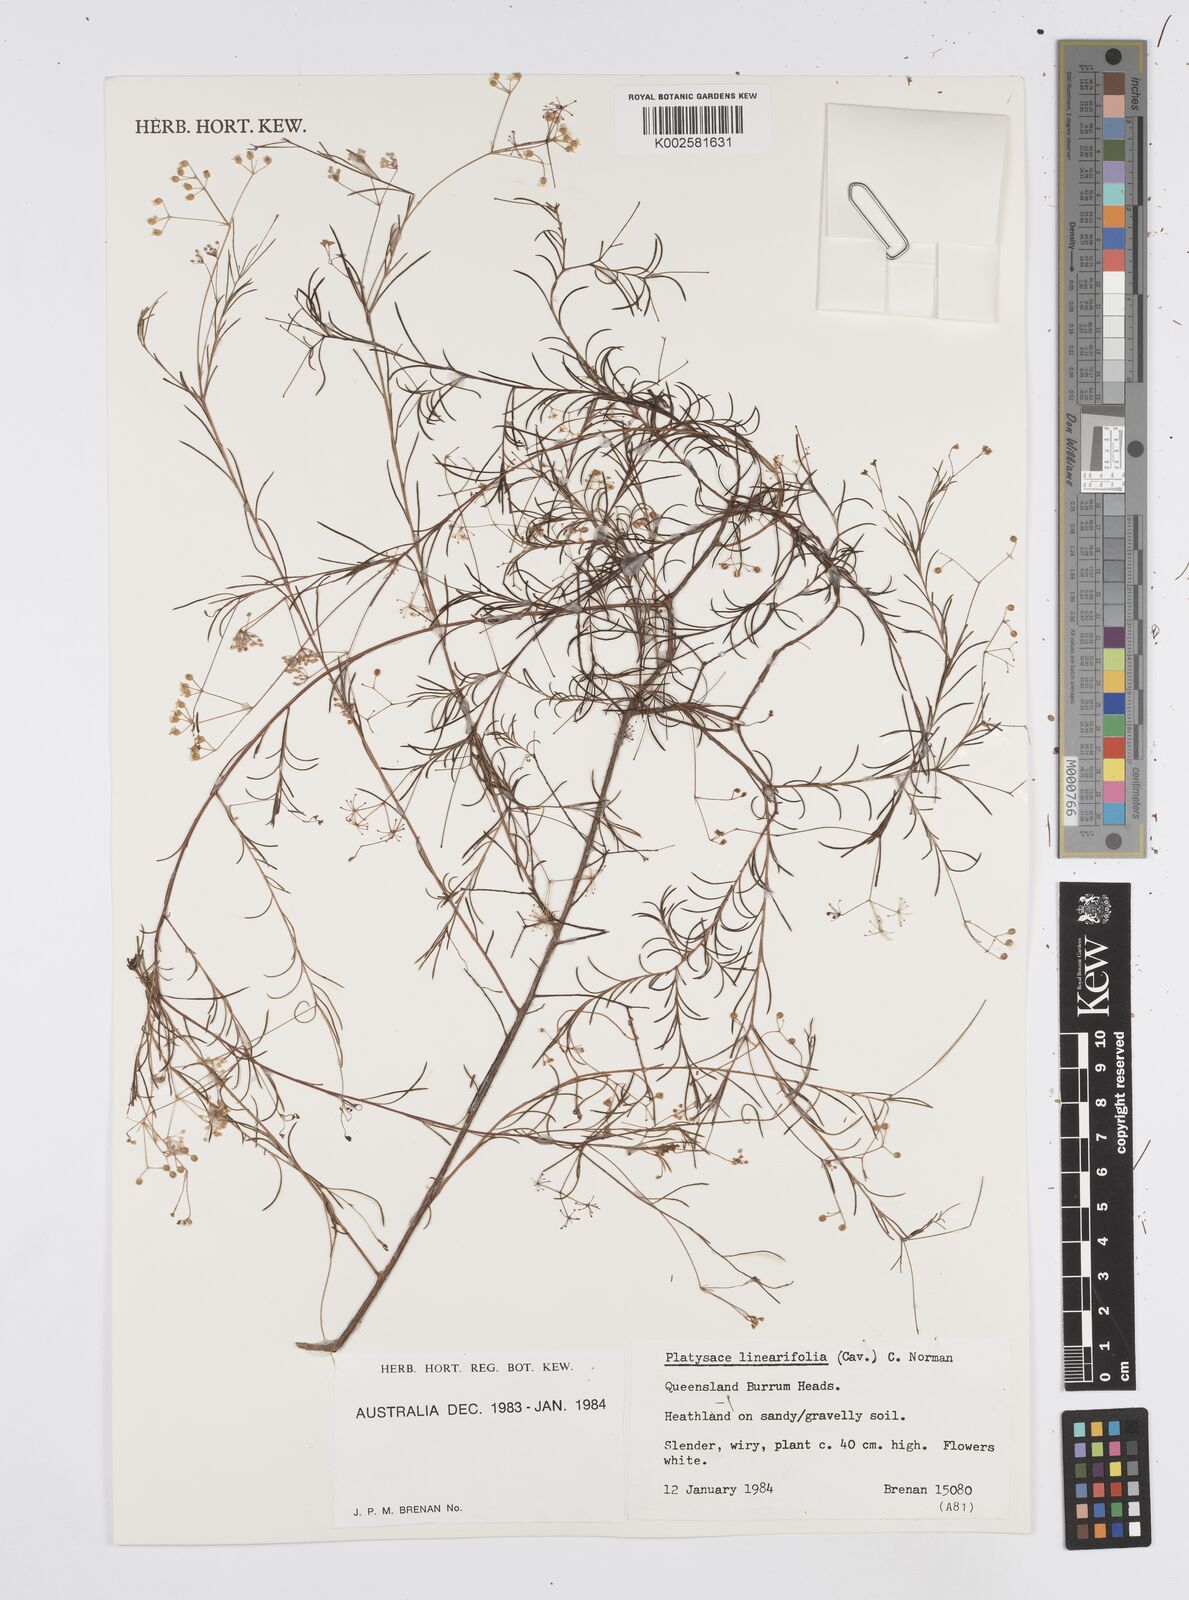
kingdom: Plantae
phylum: Tracheophyta
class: Magnoliopsida
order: Apiales
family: Apiaceae
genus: Platysace
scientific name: Platysace linearifolia
